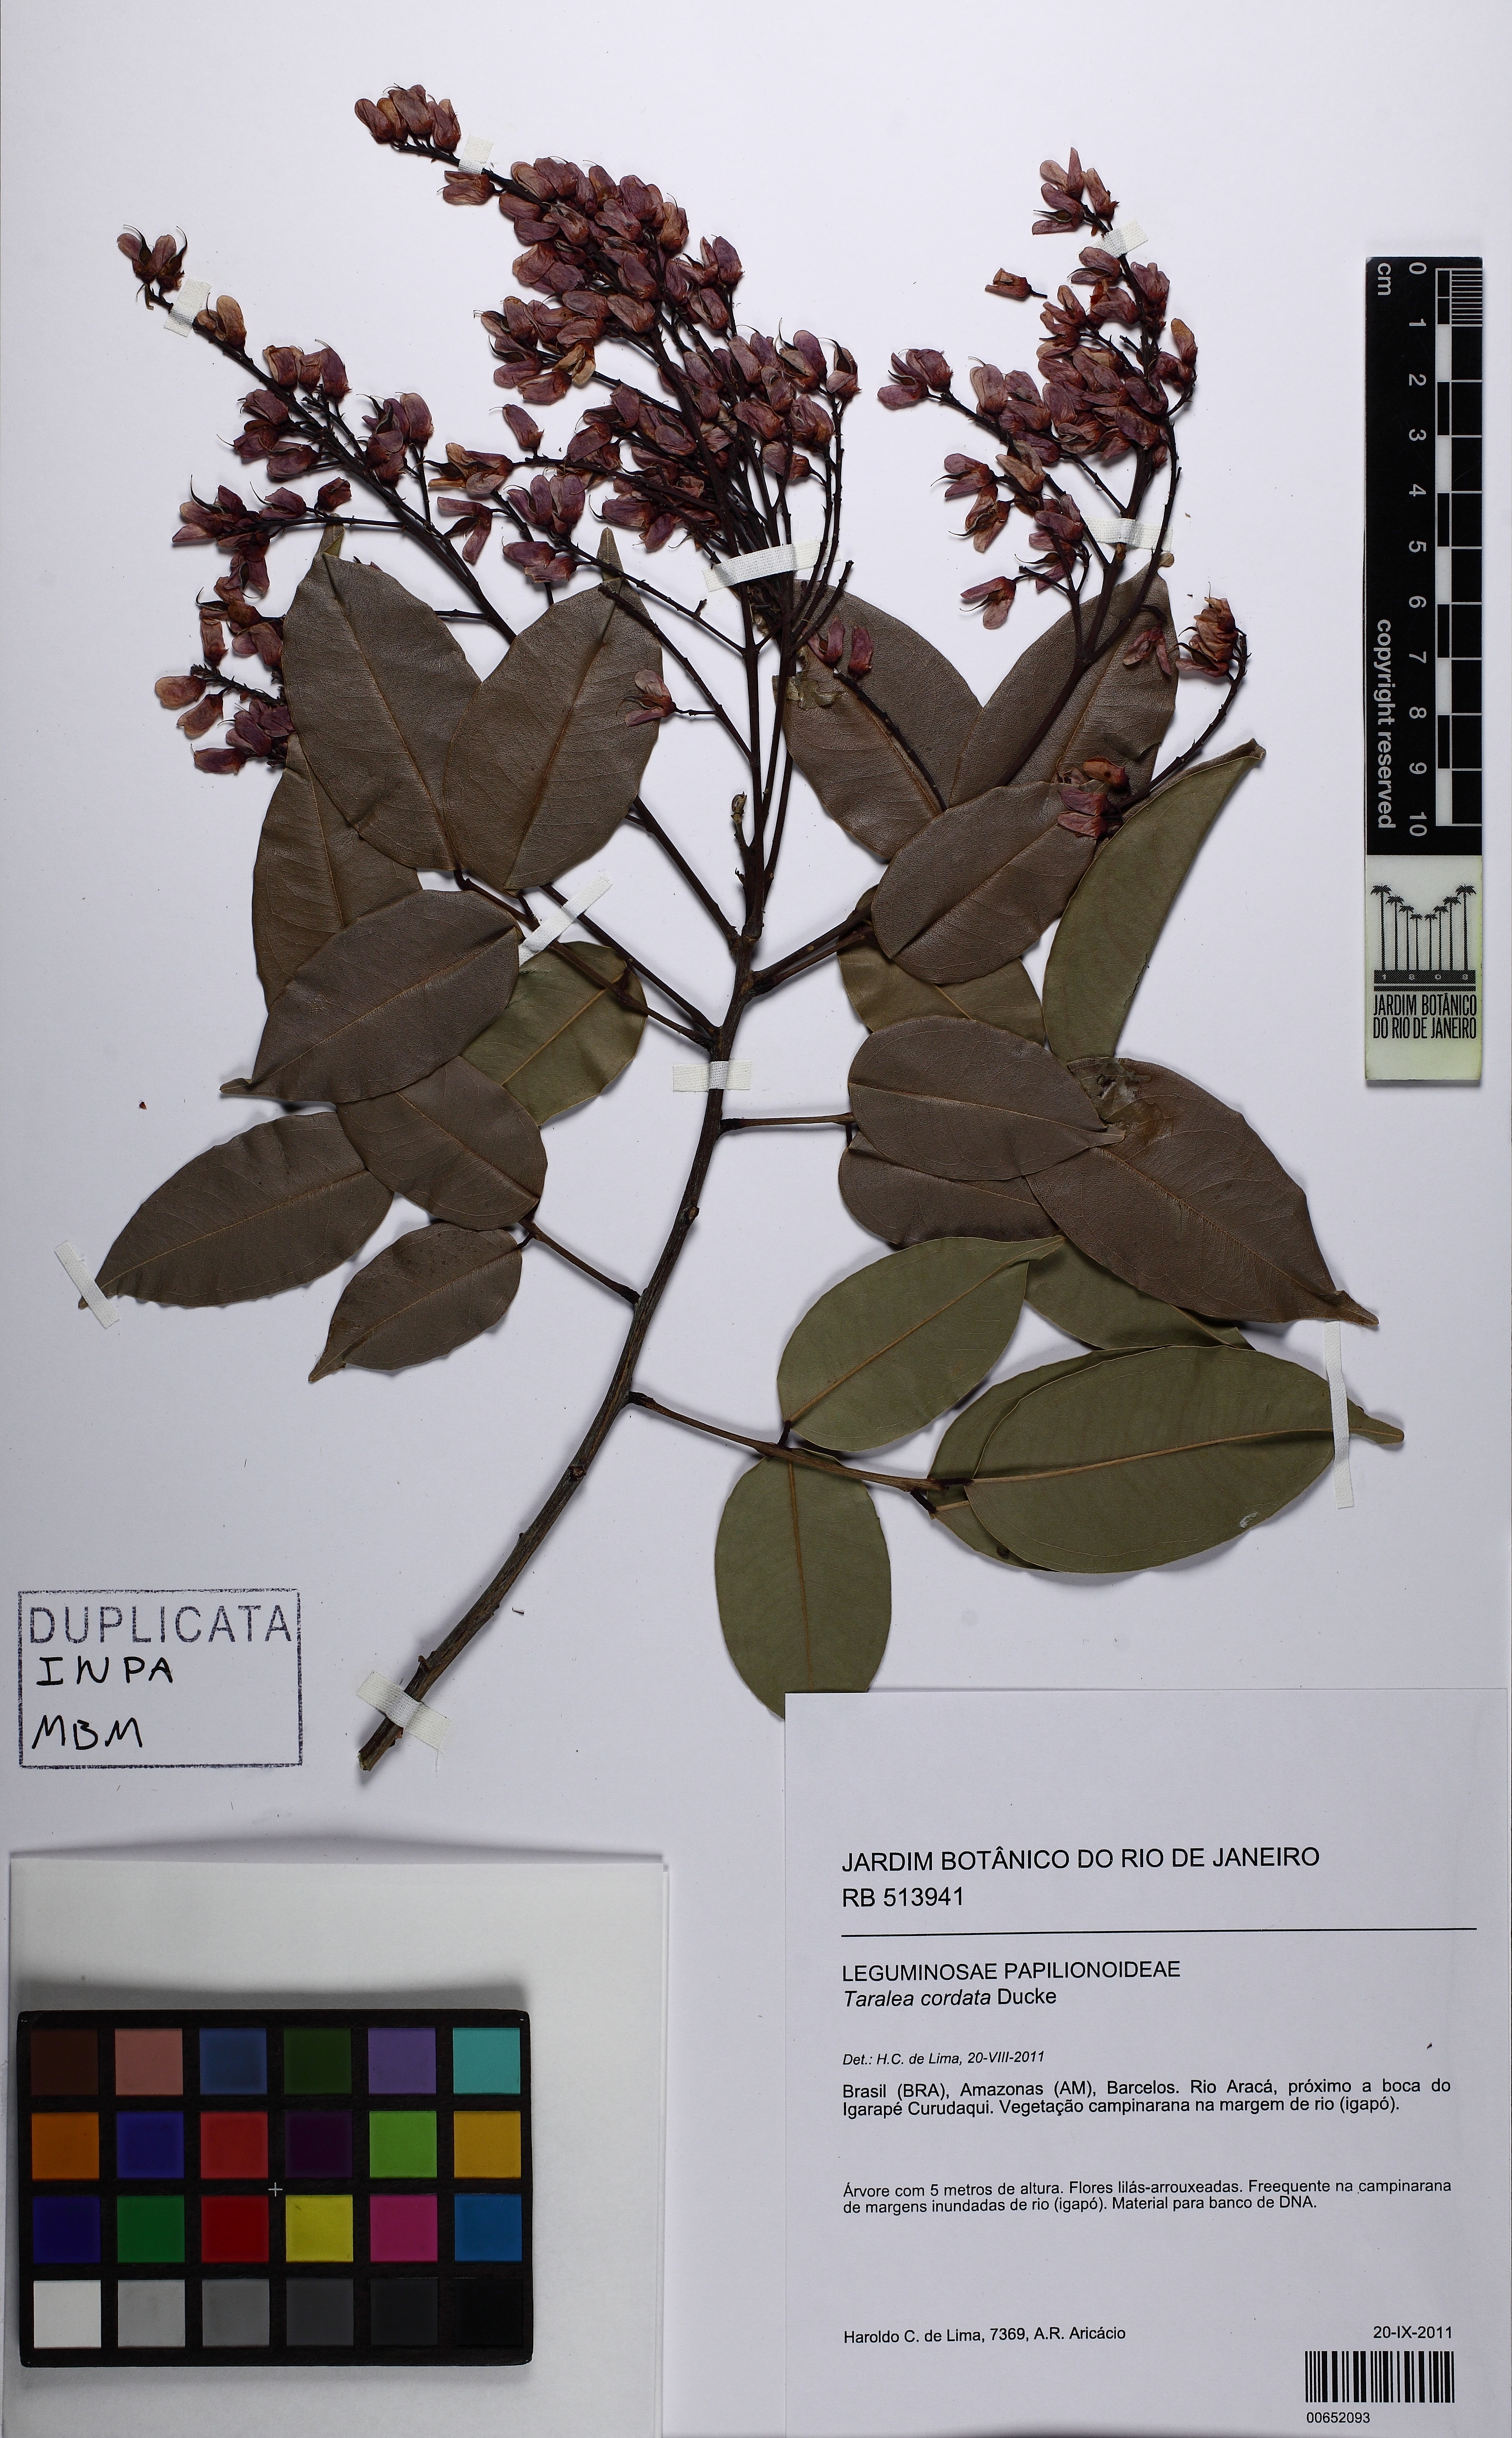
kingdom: Plantae
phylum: Tracheophyta
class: Magnoliopsida
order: Fabales
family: Fabaceae
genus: Taralea
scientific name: Taralea cordata
